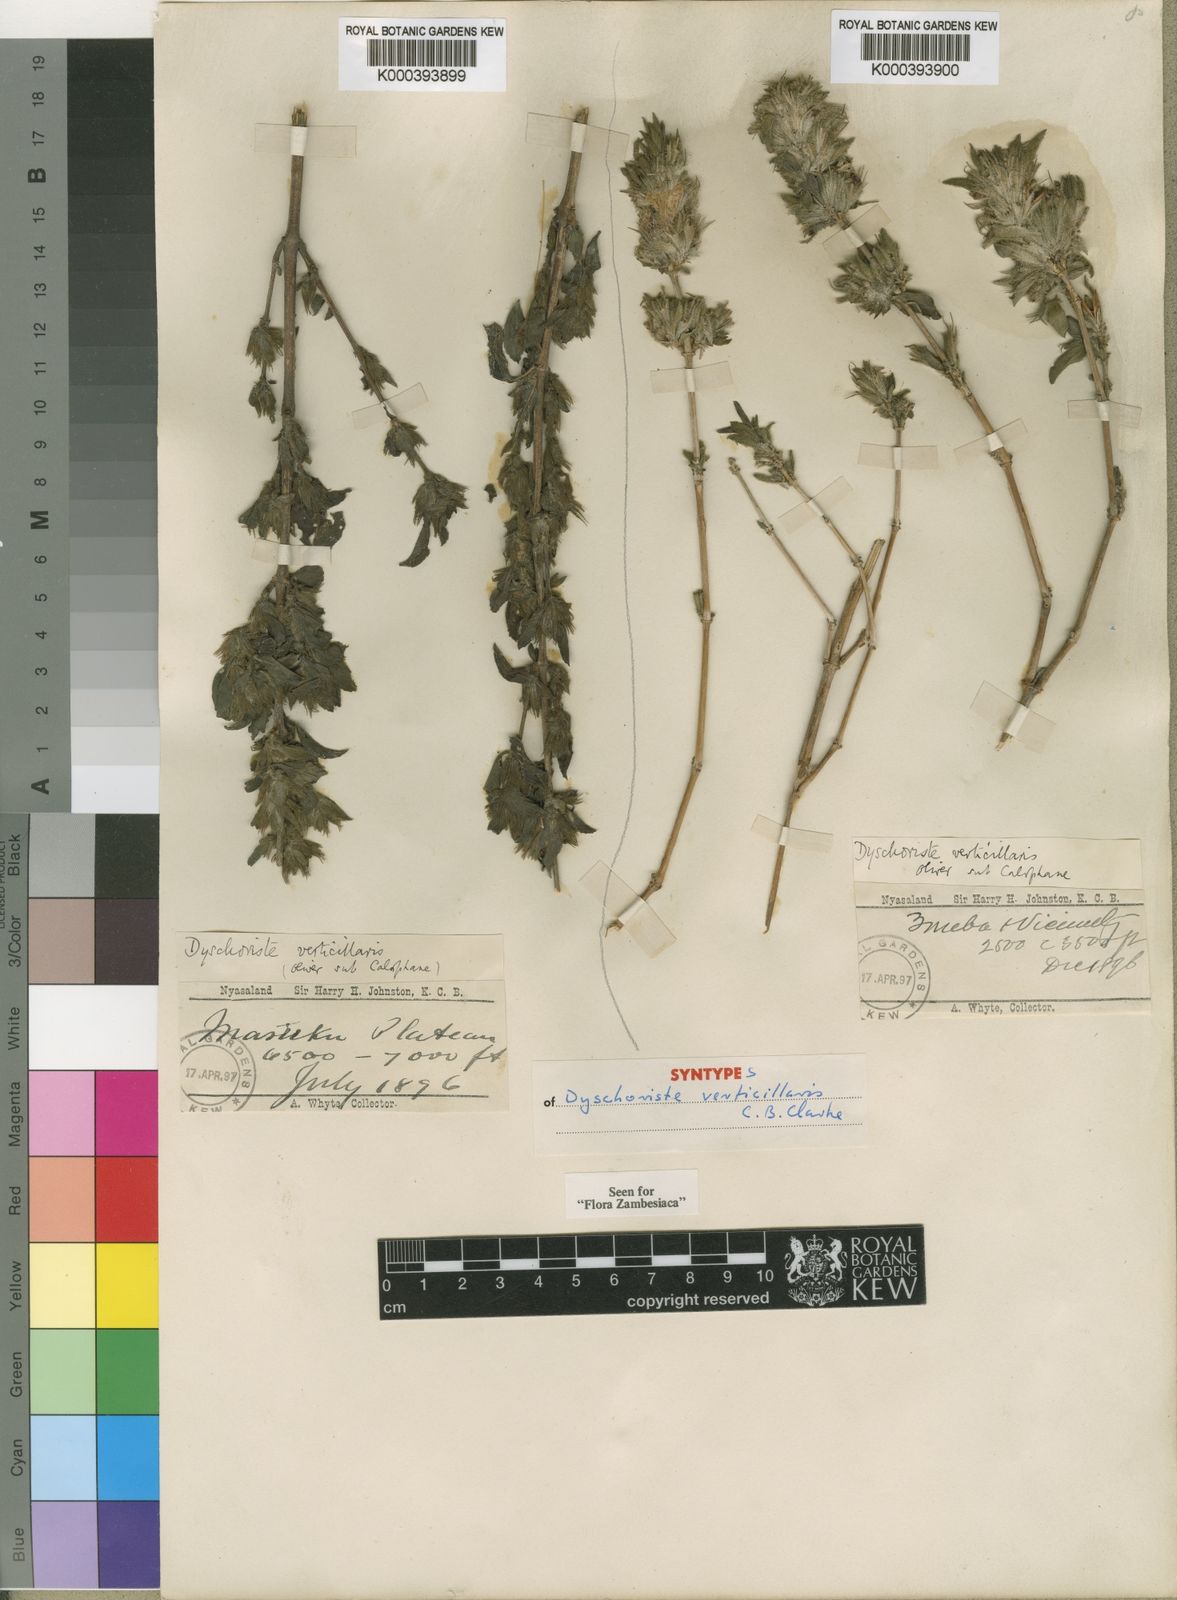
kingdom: Plantae
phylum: Tracheophyta
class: Magnoliopsida
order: Lamiales
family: Acanthaceae
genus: Dyschoriste
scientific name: Dyschoriste trichocalyx
